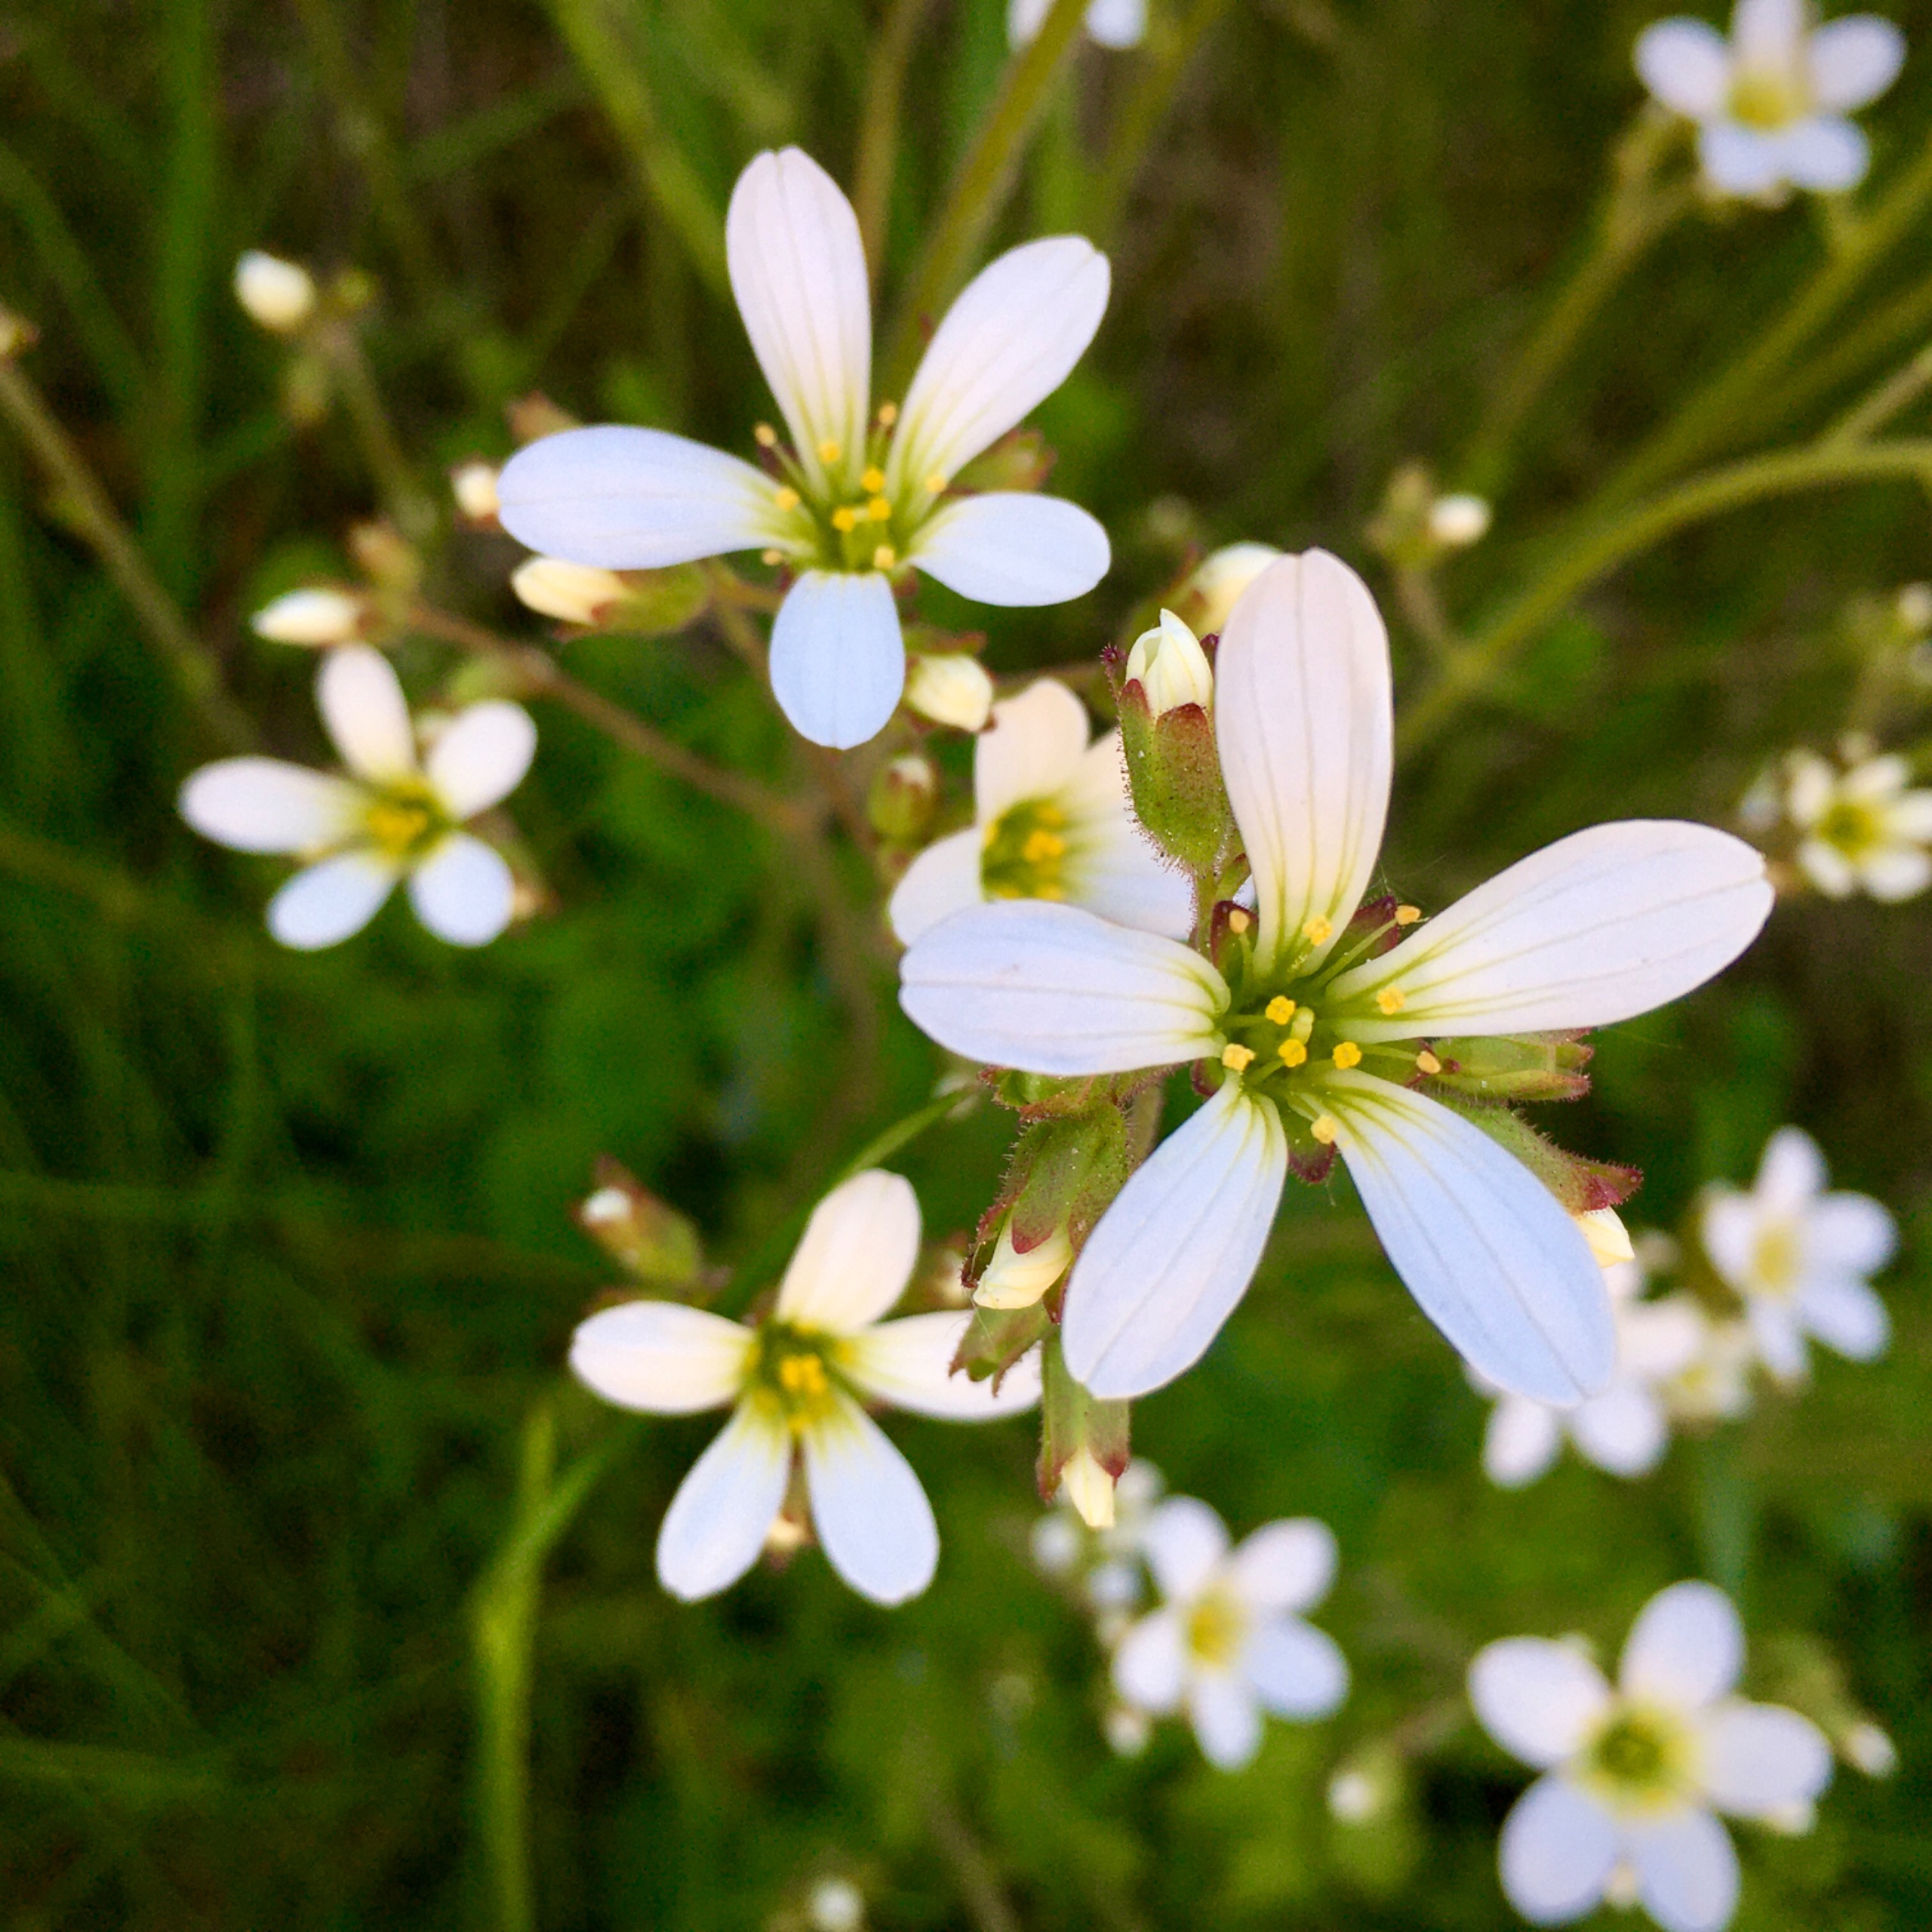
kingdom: Plantae
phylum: Tracheophyta
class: Magnoliopsida
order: Saxifragales
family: Saxifragaceae
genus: Saxifraga
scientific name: Saxifraga granulata
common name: Kornet stenbræk
